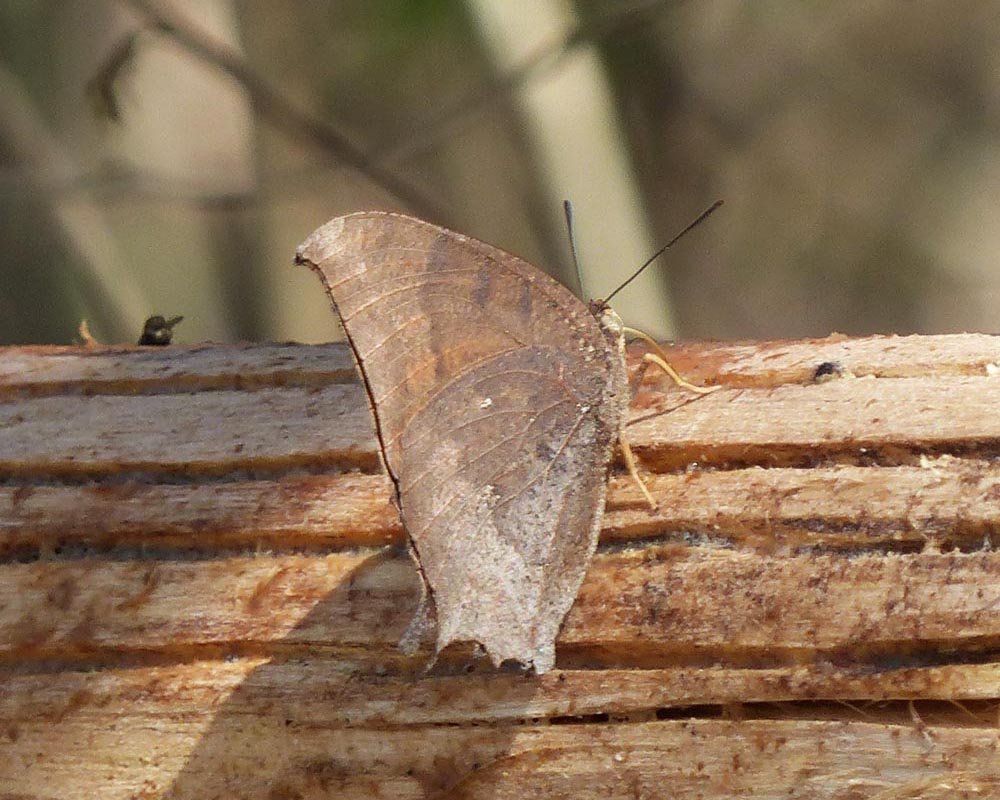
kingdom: Animalia
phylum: Arthropoda
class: Insecta
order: Lepidoptera
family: Nymphalidae
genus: Anaea
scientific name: Anaea aidea
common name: Tropical Leafwing
